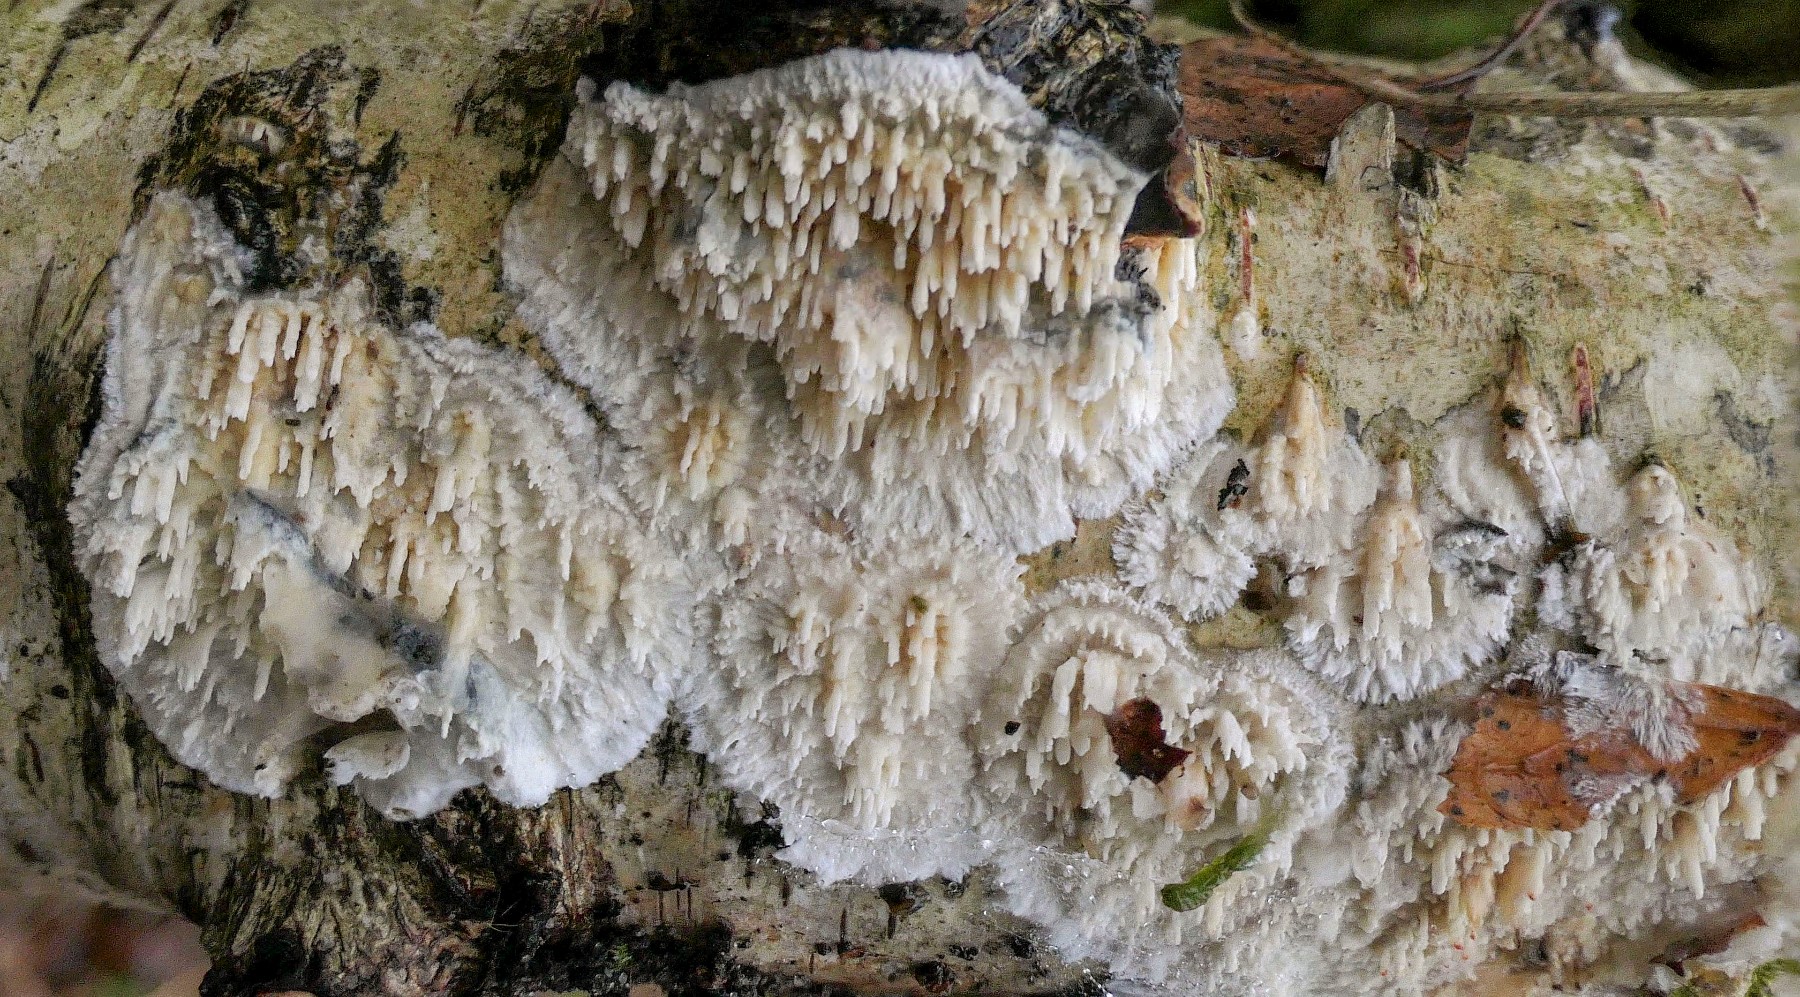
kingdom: Fungi
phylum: Basidiomycota
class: Agaricomycetes
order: Hymenochaetales
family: Schizoporaceae
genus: Xylodon
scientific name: Xylodon radula
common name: grovtandet kalkskind
